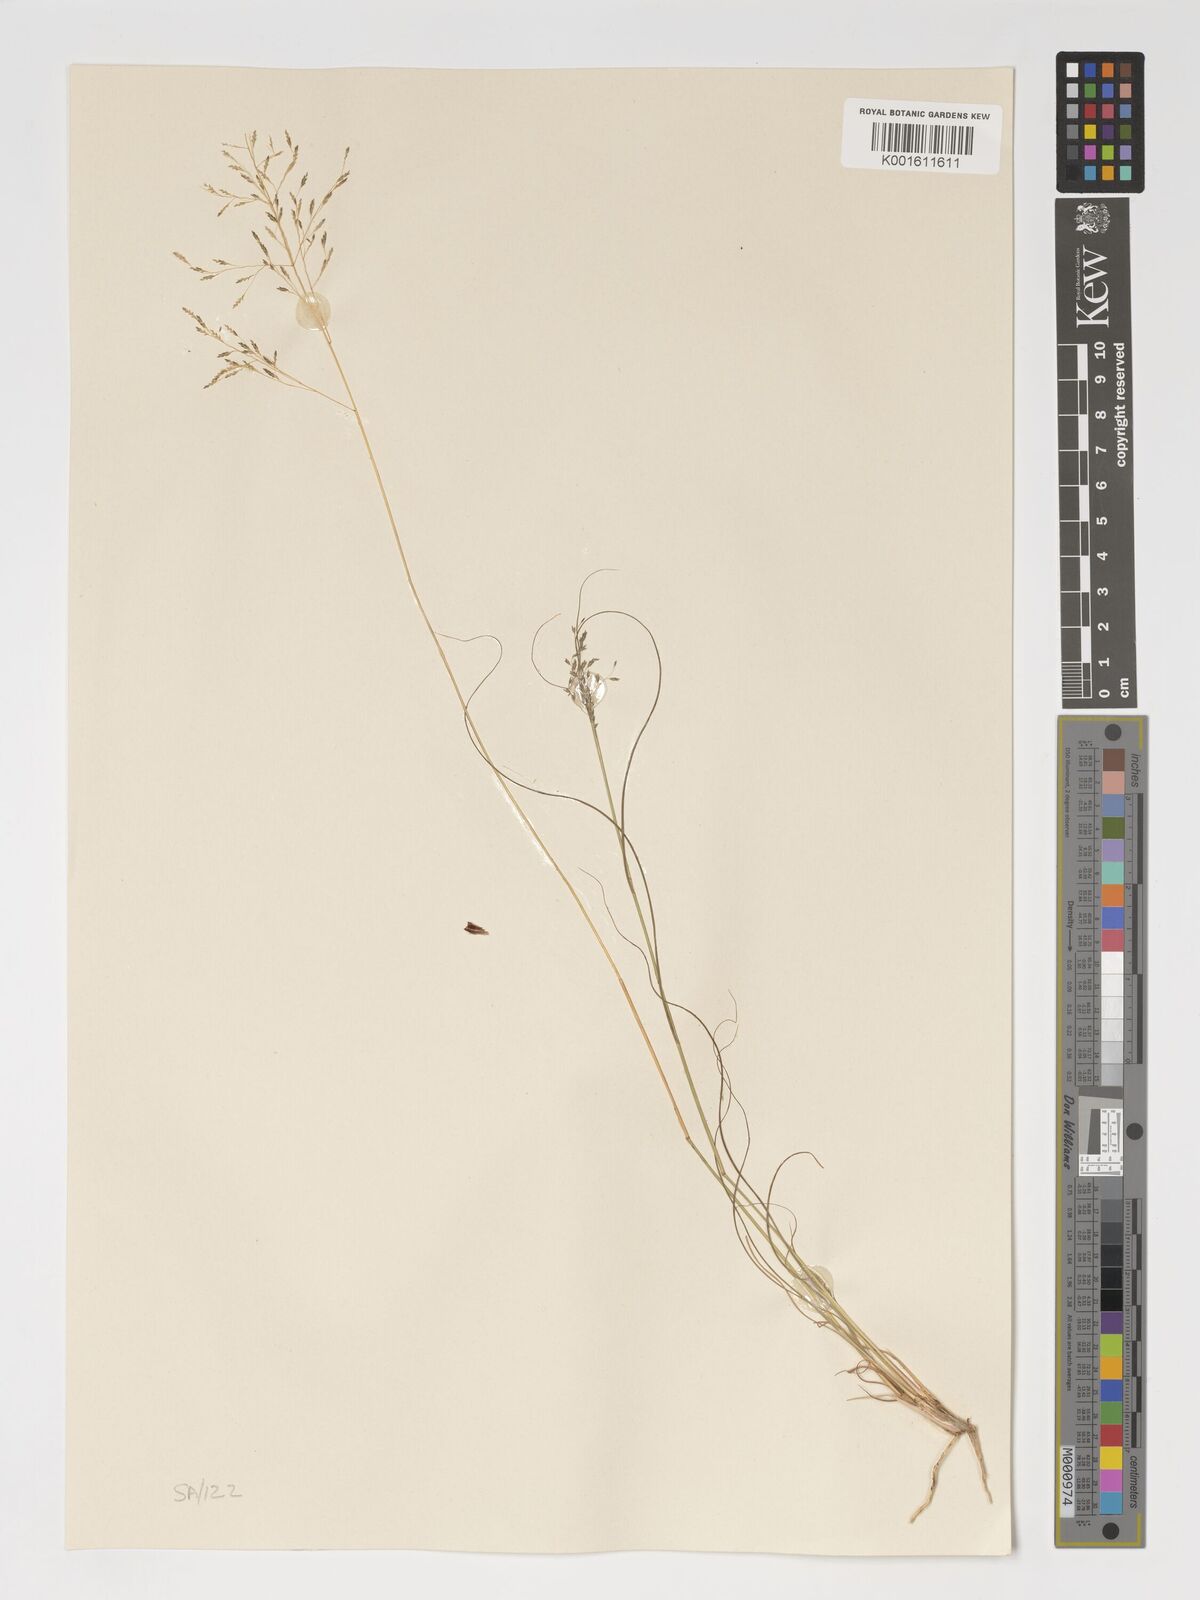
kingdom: Plantae
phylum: Tracheophyta
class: Liliopsida
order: Poales
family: Poaceae
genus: Eragrostis
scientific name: Eragrostis curvula
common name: African love-grass
